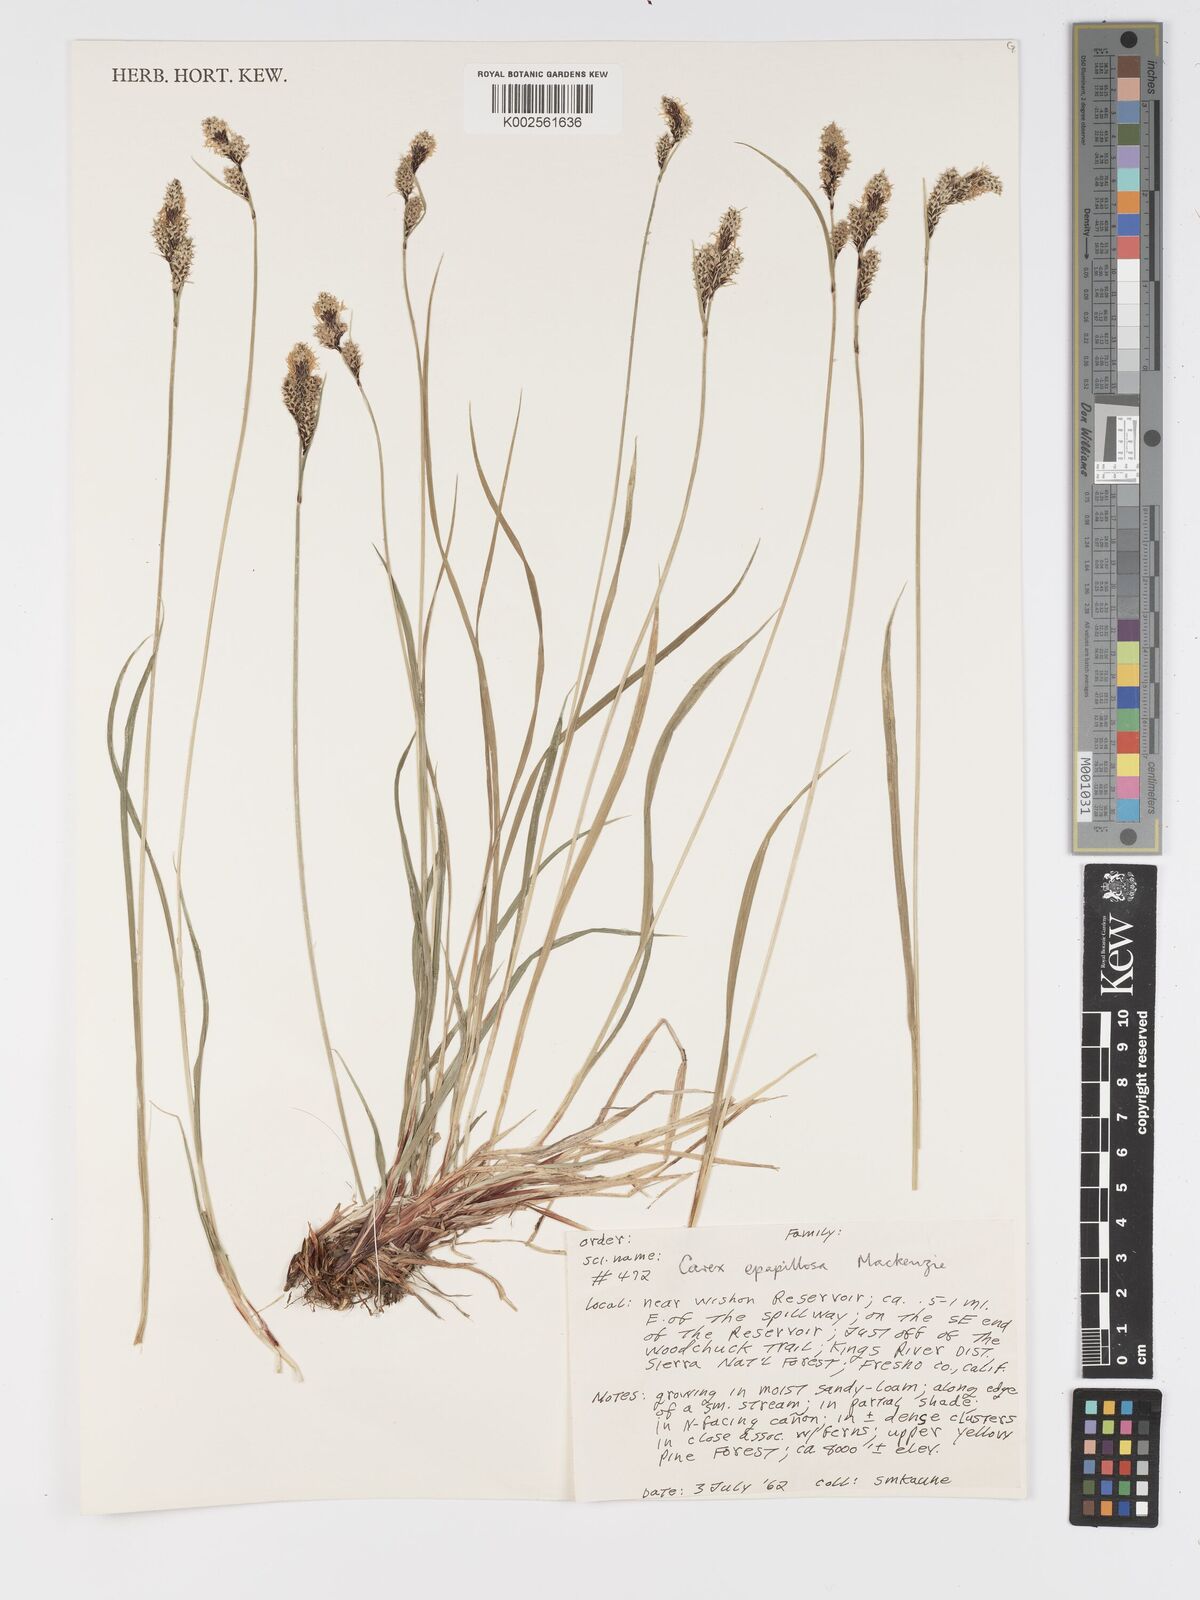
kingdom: Plantae
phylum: Tracheophyta
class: Liliopsida
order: Poales
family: Cyperaceae
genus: Carex
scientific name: Carex heteroneura
